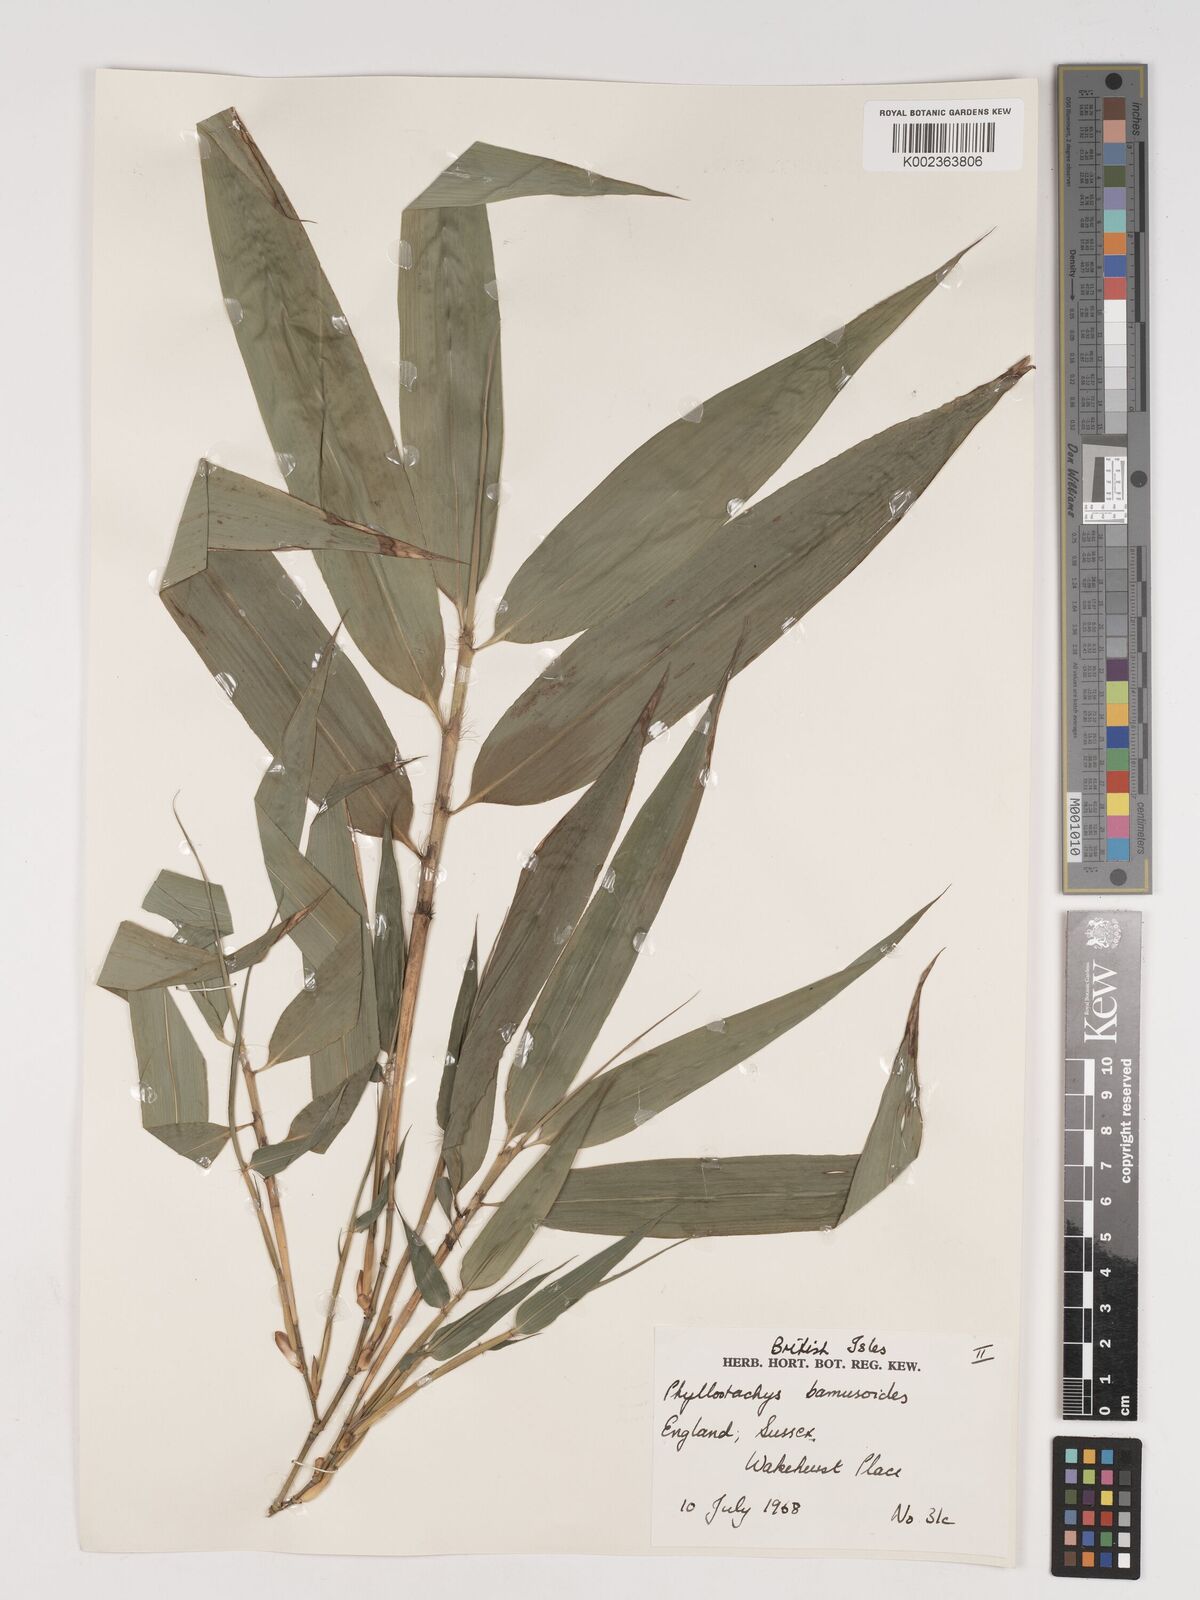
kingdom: Plantae
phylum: Tracheophyta
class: Liliopsida
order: Poales
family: Poaceae
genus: Phyllostachys
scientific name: Phyllostachys reticulata
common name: Bamboo
